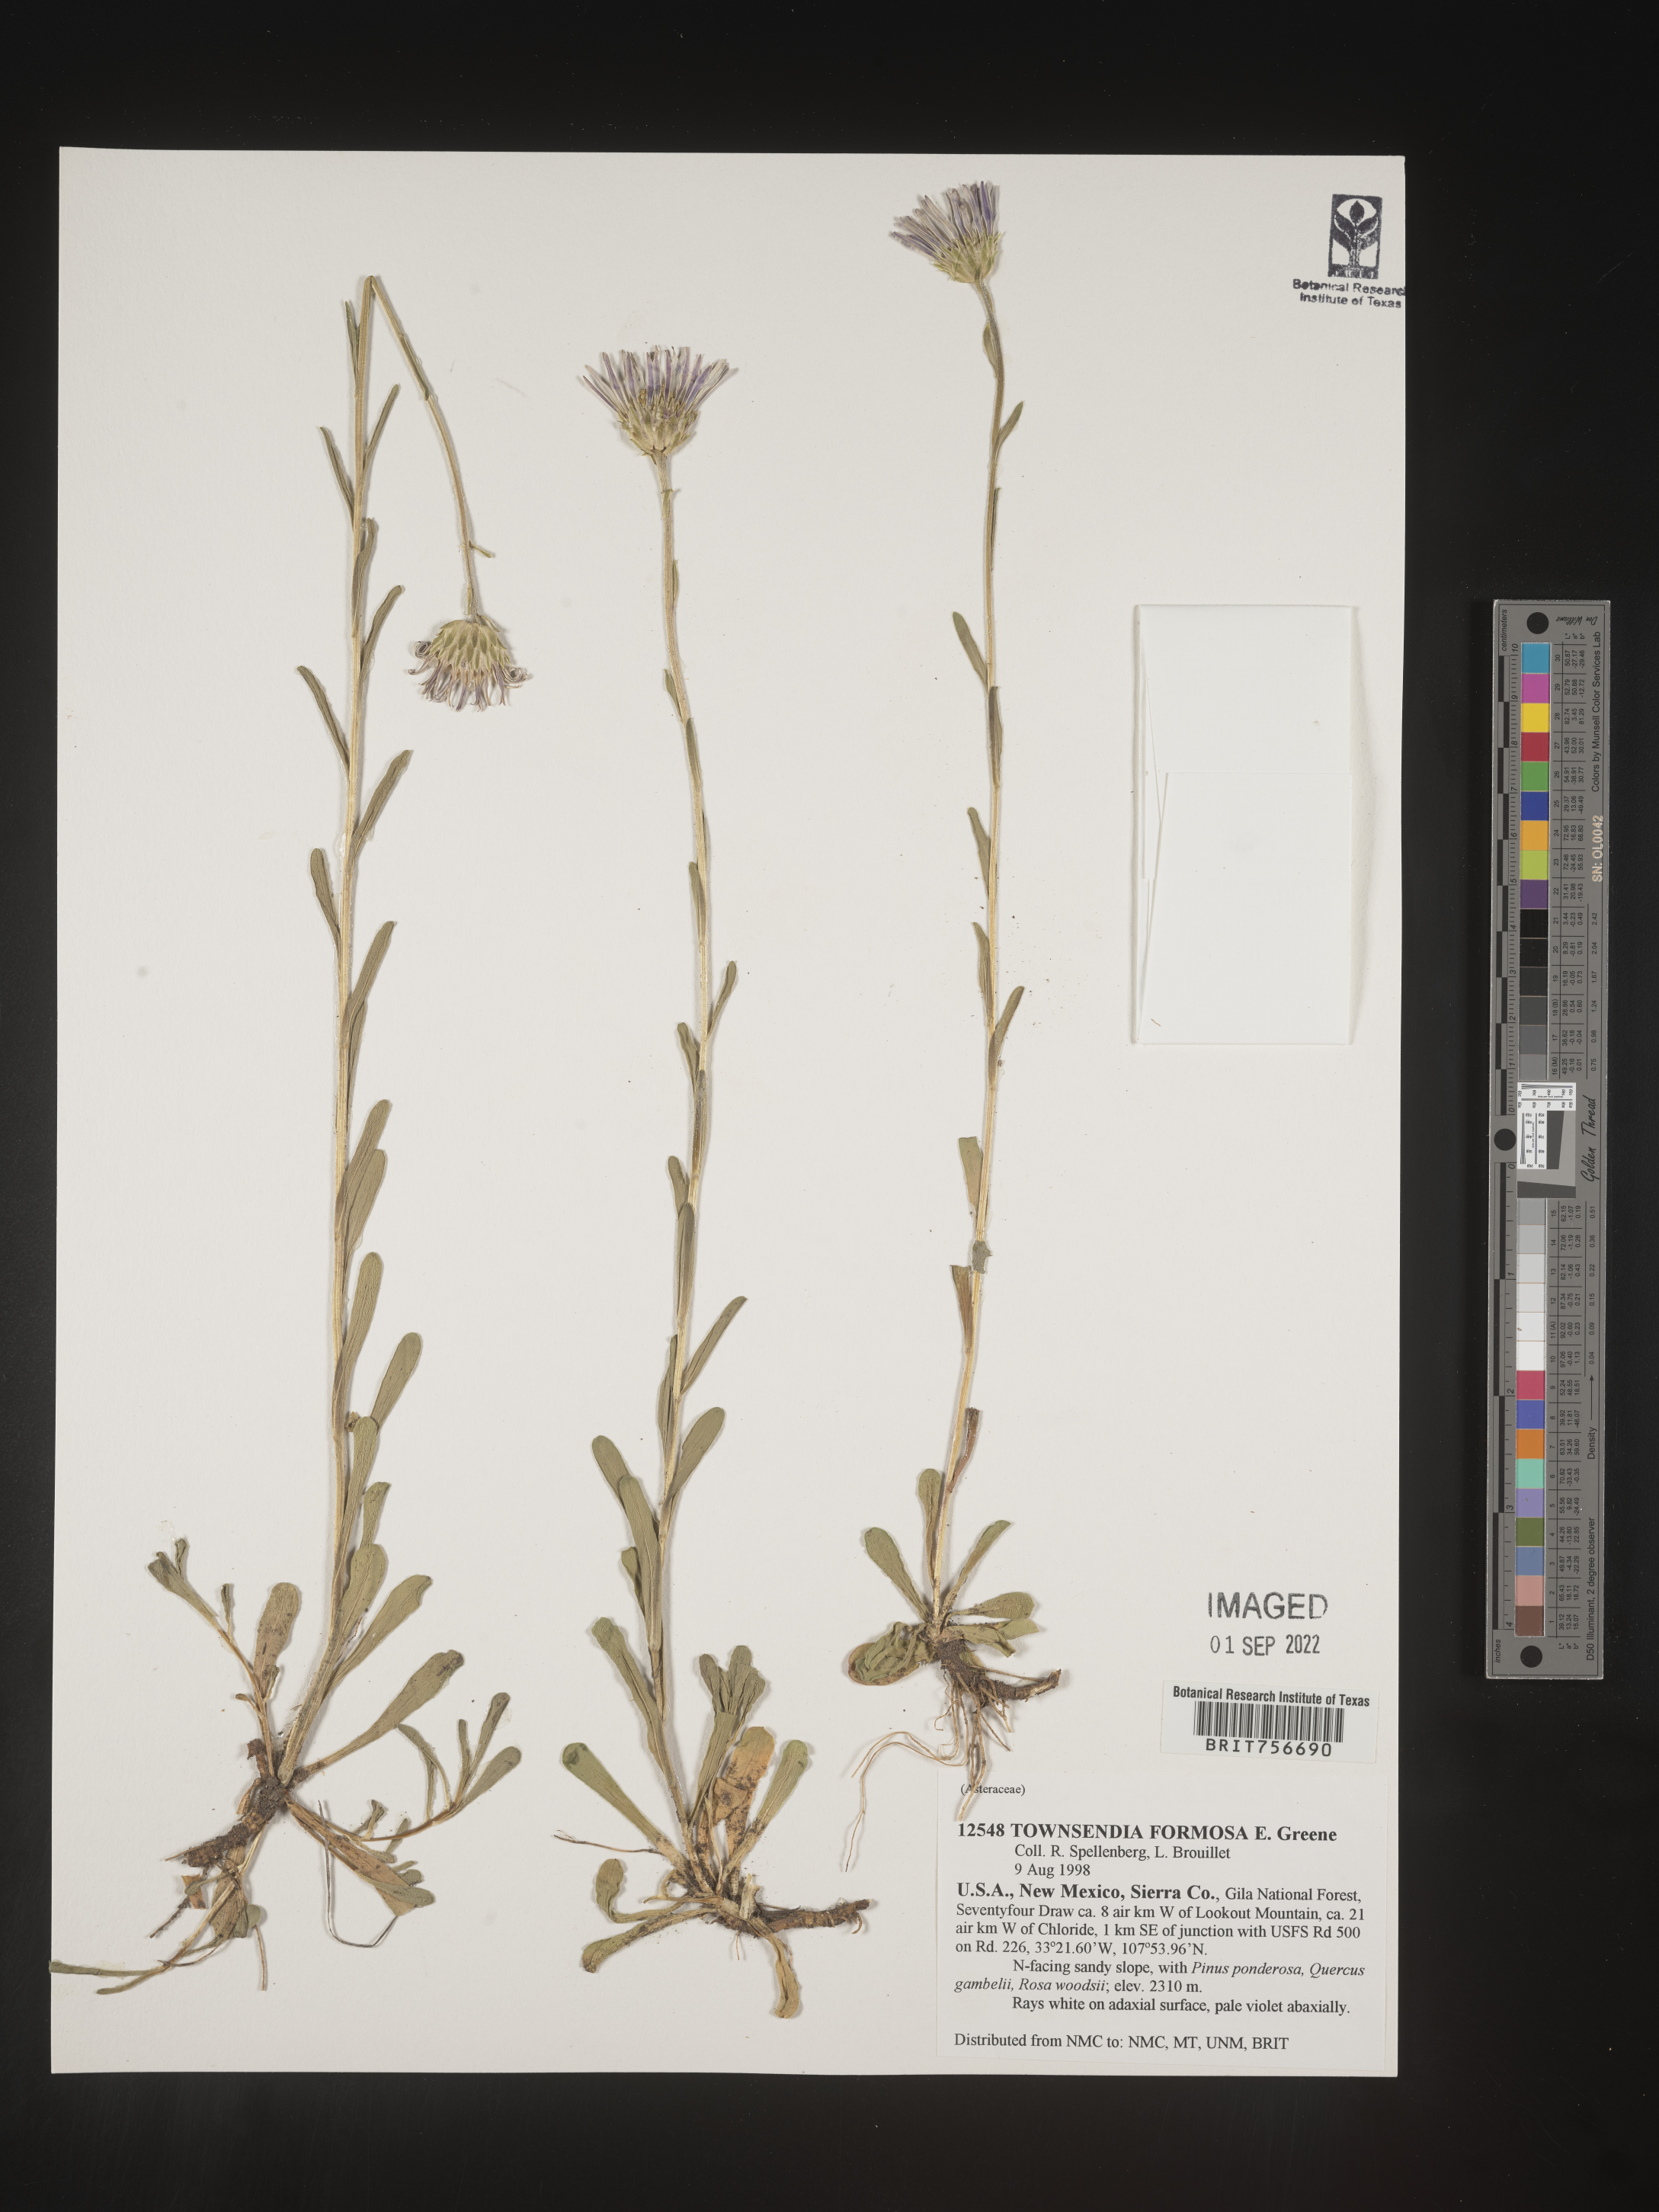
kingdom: Plantae
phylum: Tracheophyta
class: Magnoliopsida
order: Asterales
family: Asteraceae
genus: Townsendia
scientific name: Townsendia formosa
